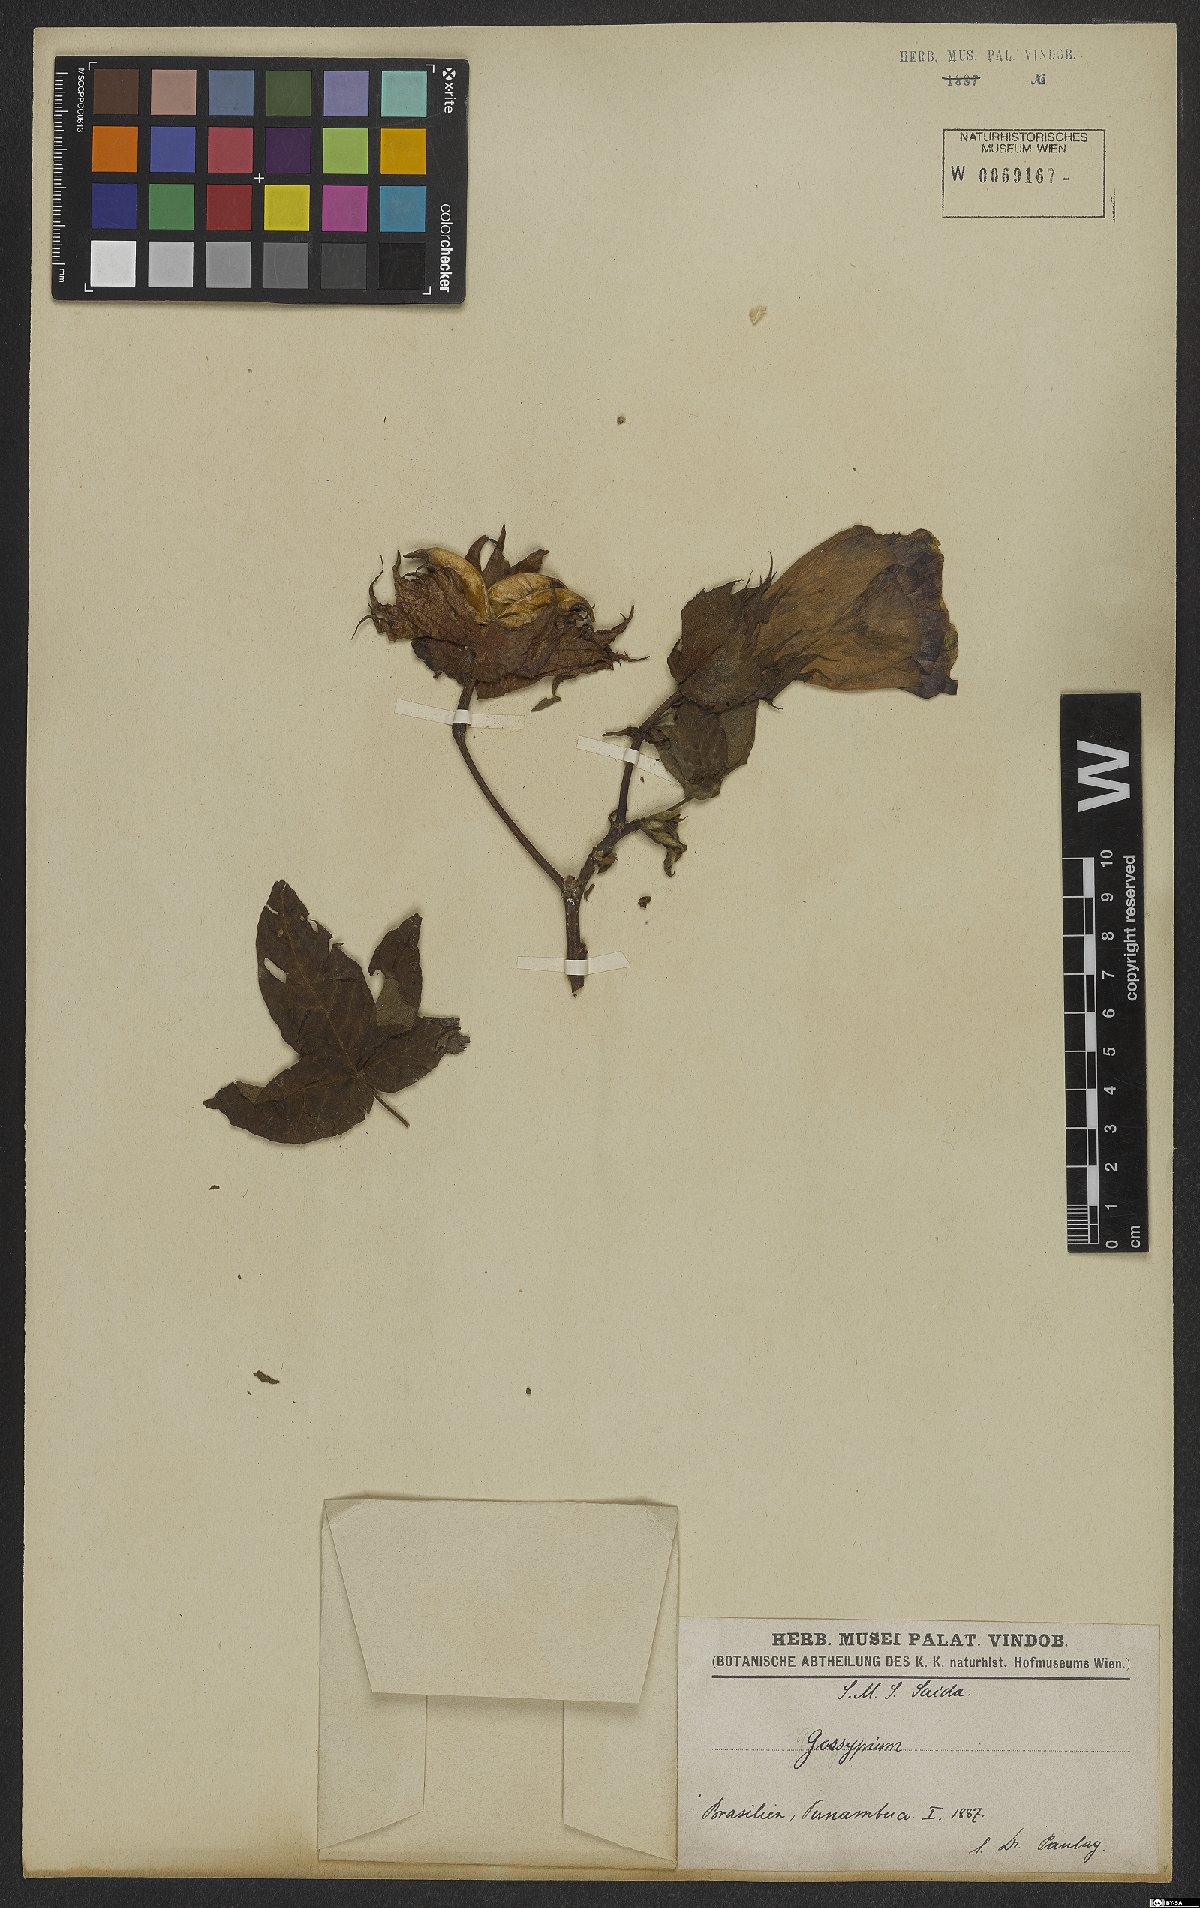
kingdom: Plantae
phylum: Tracheophyta
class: Magnoliopsida
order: Malvales
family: Malvaceae
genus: Gossypium
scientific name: Gossypium
